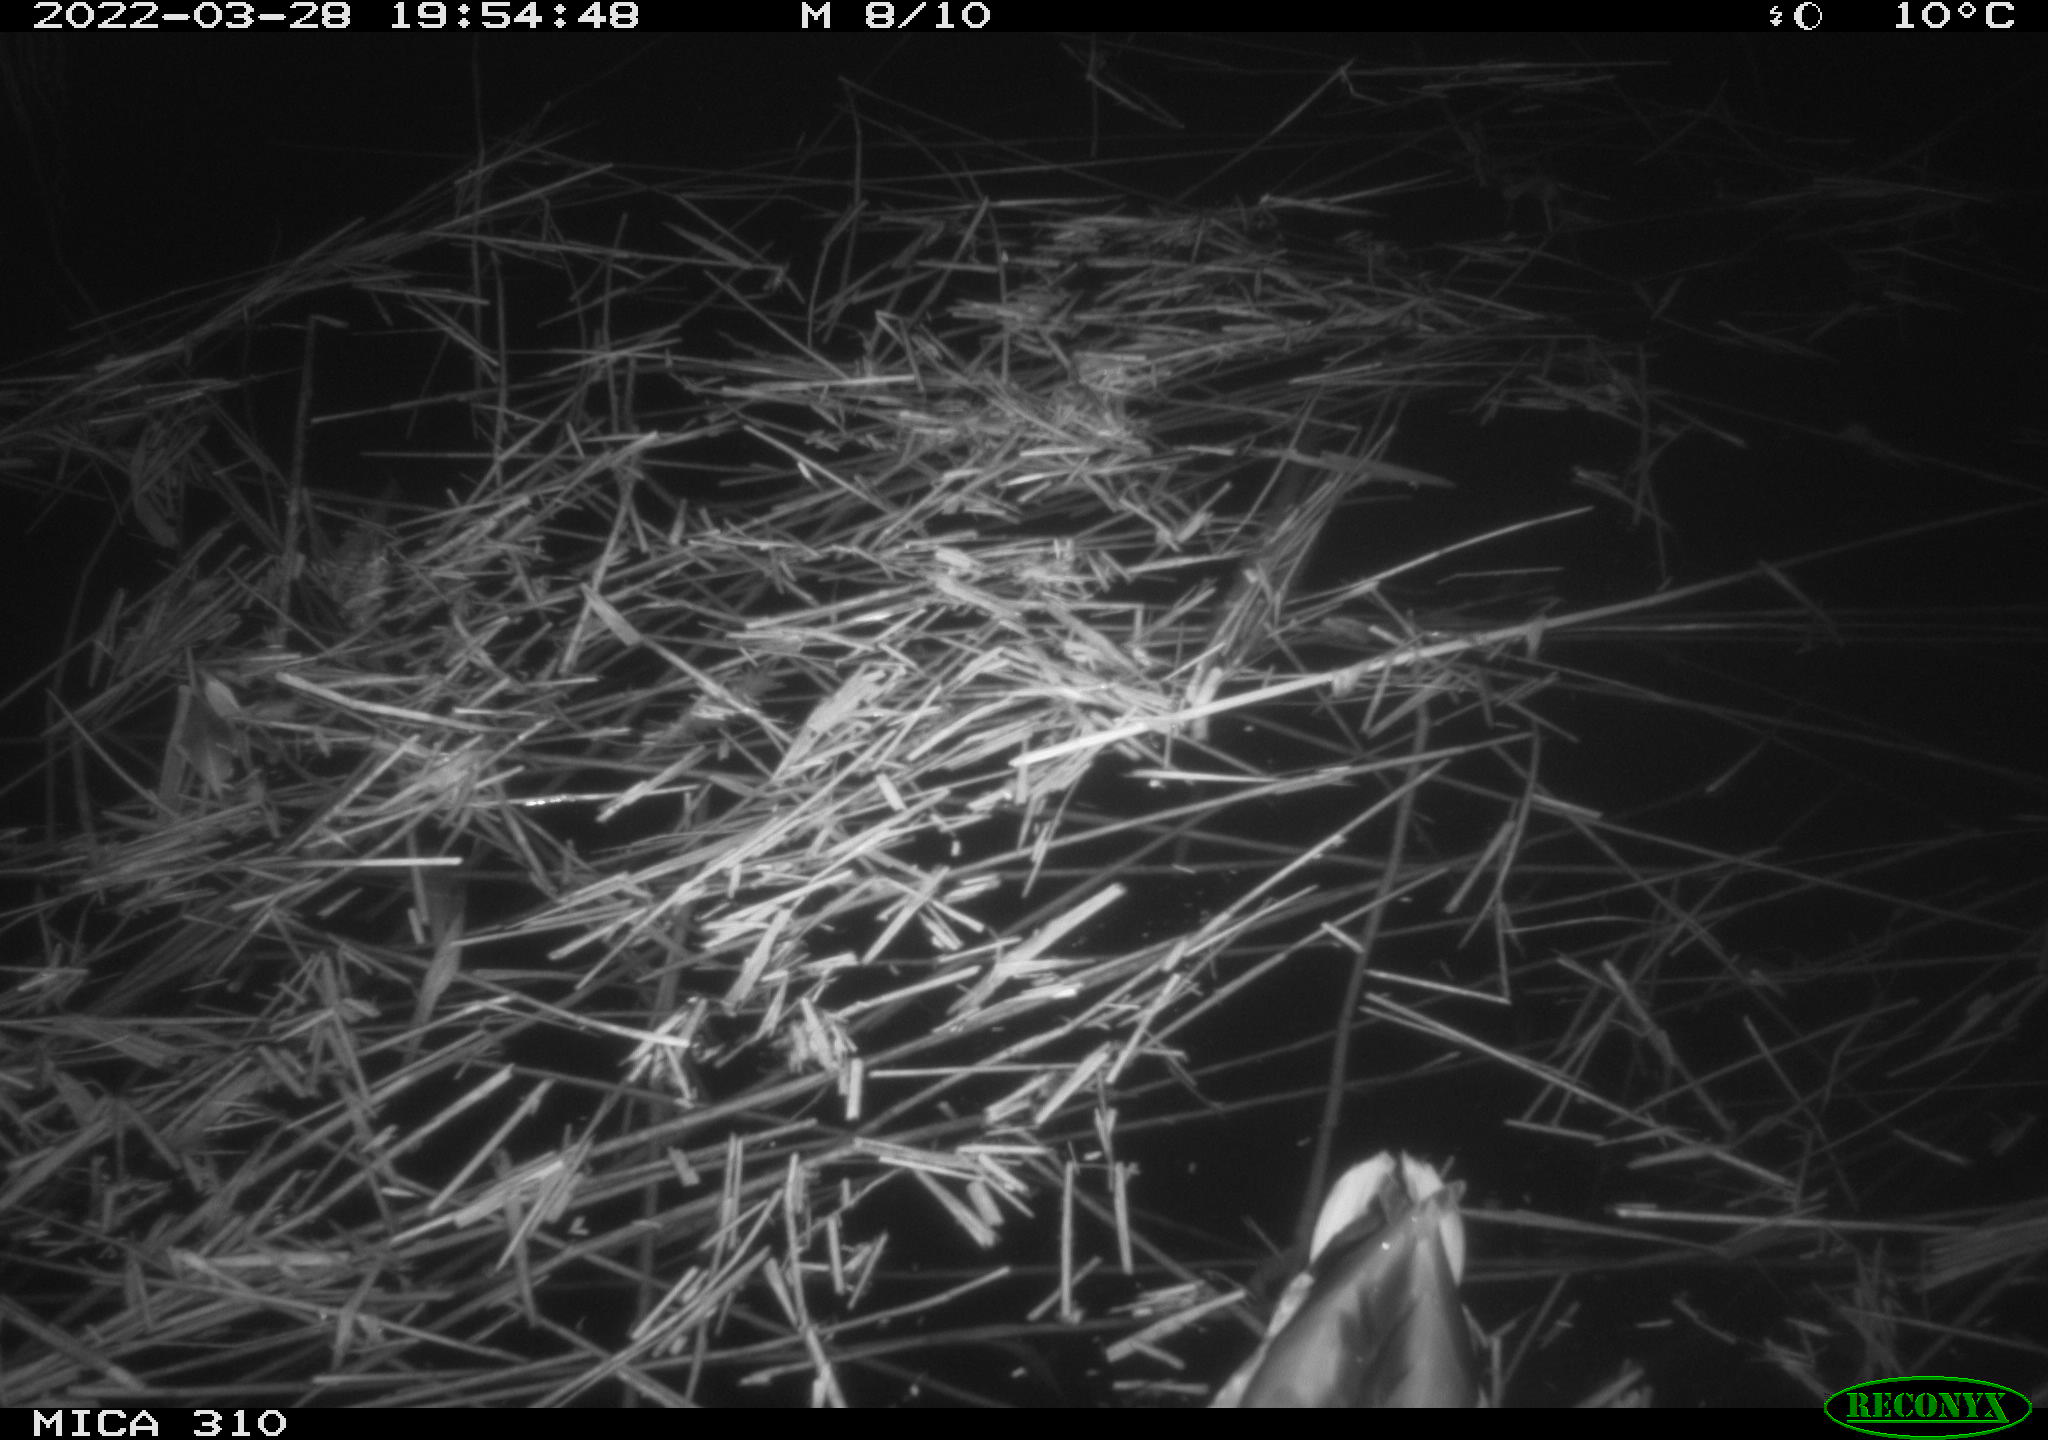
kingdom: Animalia
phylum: Chordata
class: Aves
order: Anseriformes
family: Anatidae
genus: Anas
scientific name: Anas platyrhynchos
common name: Mallard
